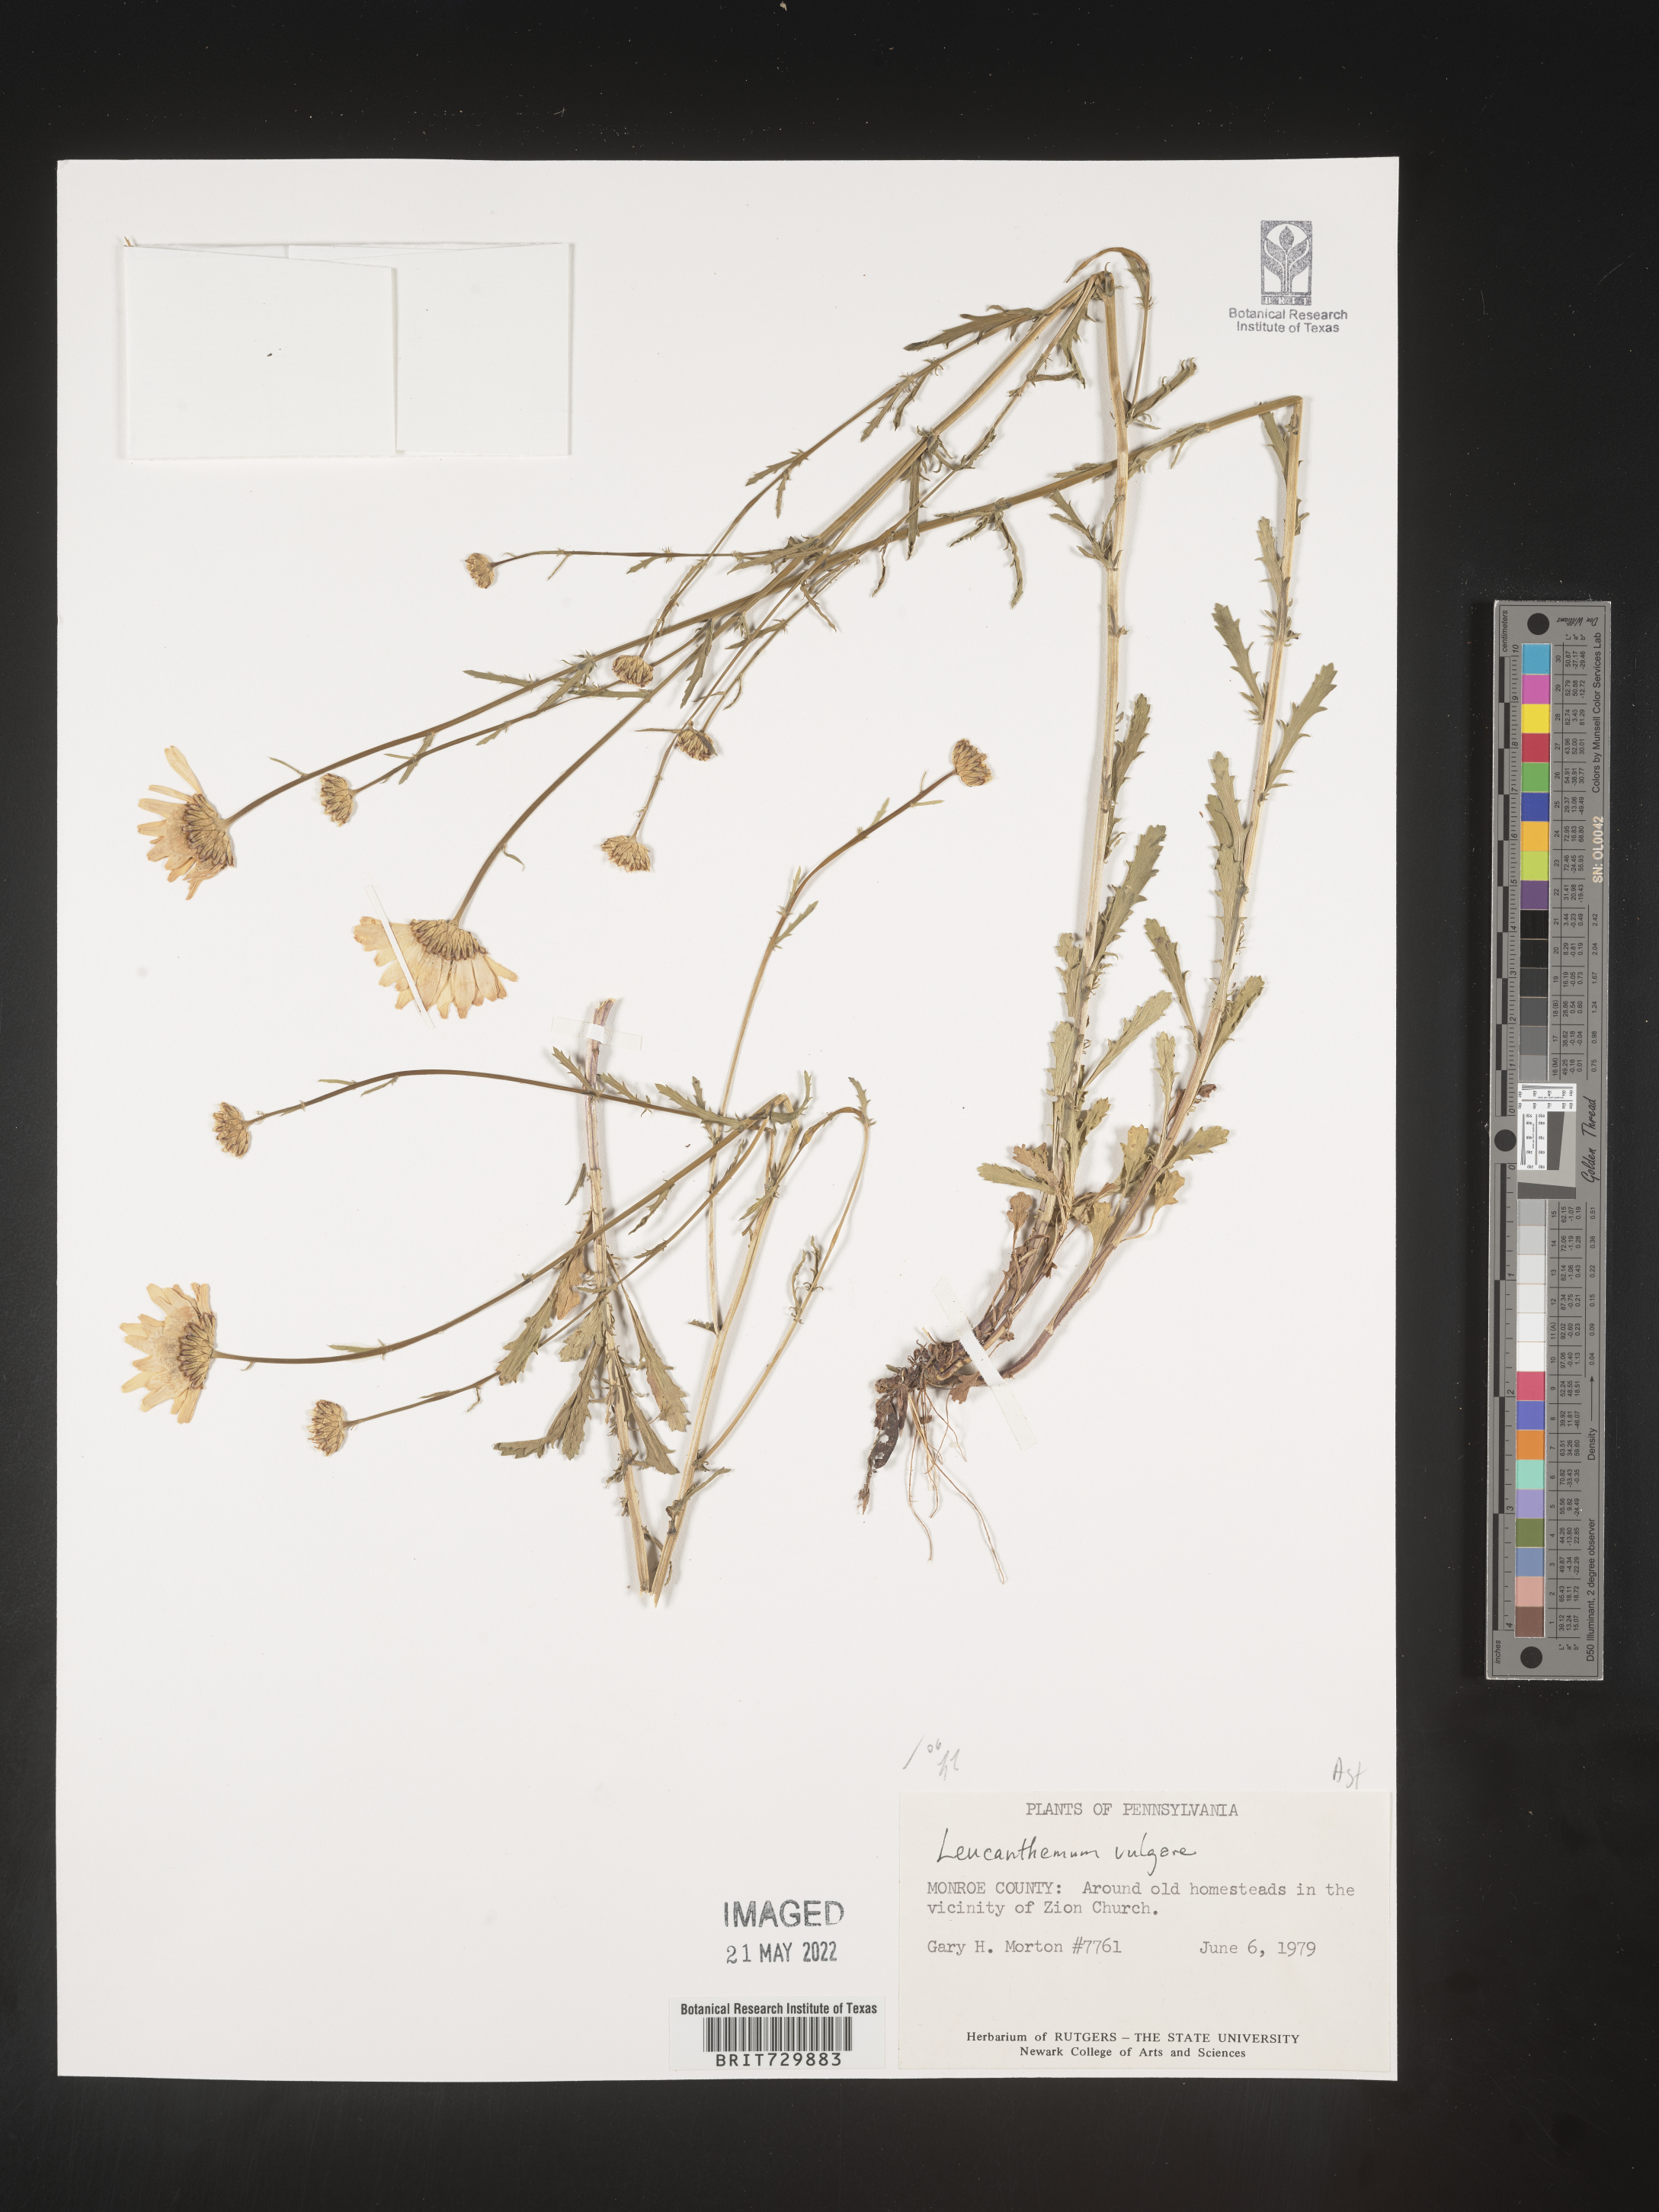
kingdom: Plantae
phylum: Tracheophyta
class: Magnoliopsida
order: Asterales
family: Asteraceae
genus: Leucanthemum
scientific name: Leucanthemum vulgare
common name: Oxeye daisy
